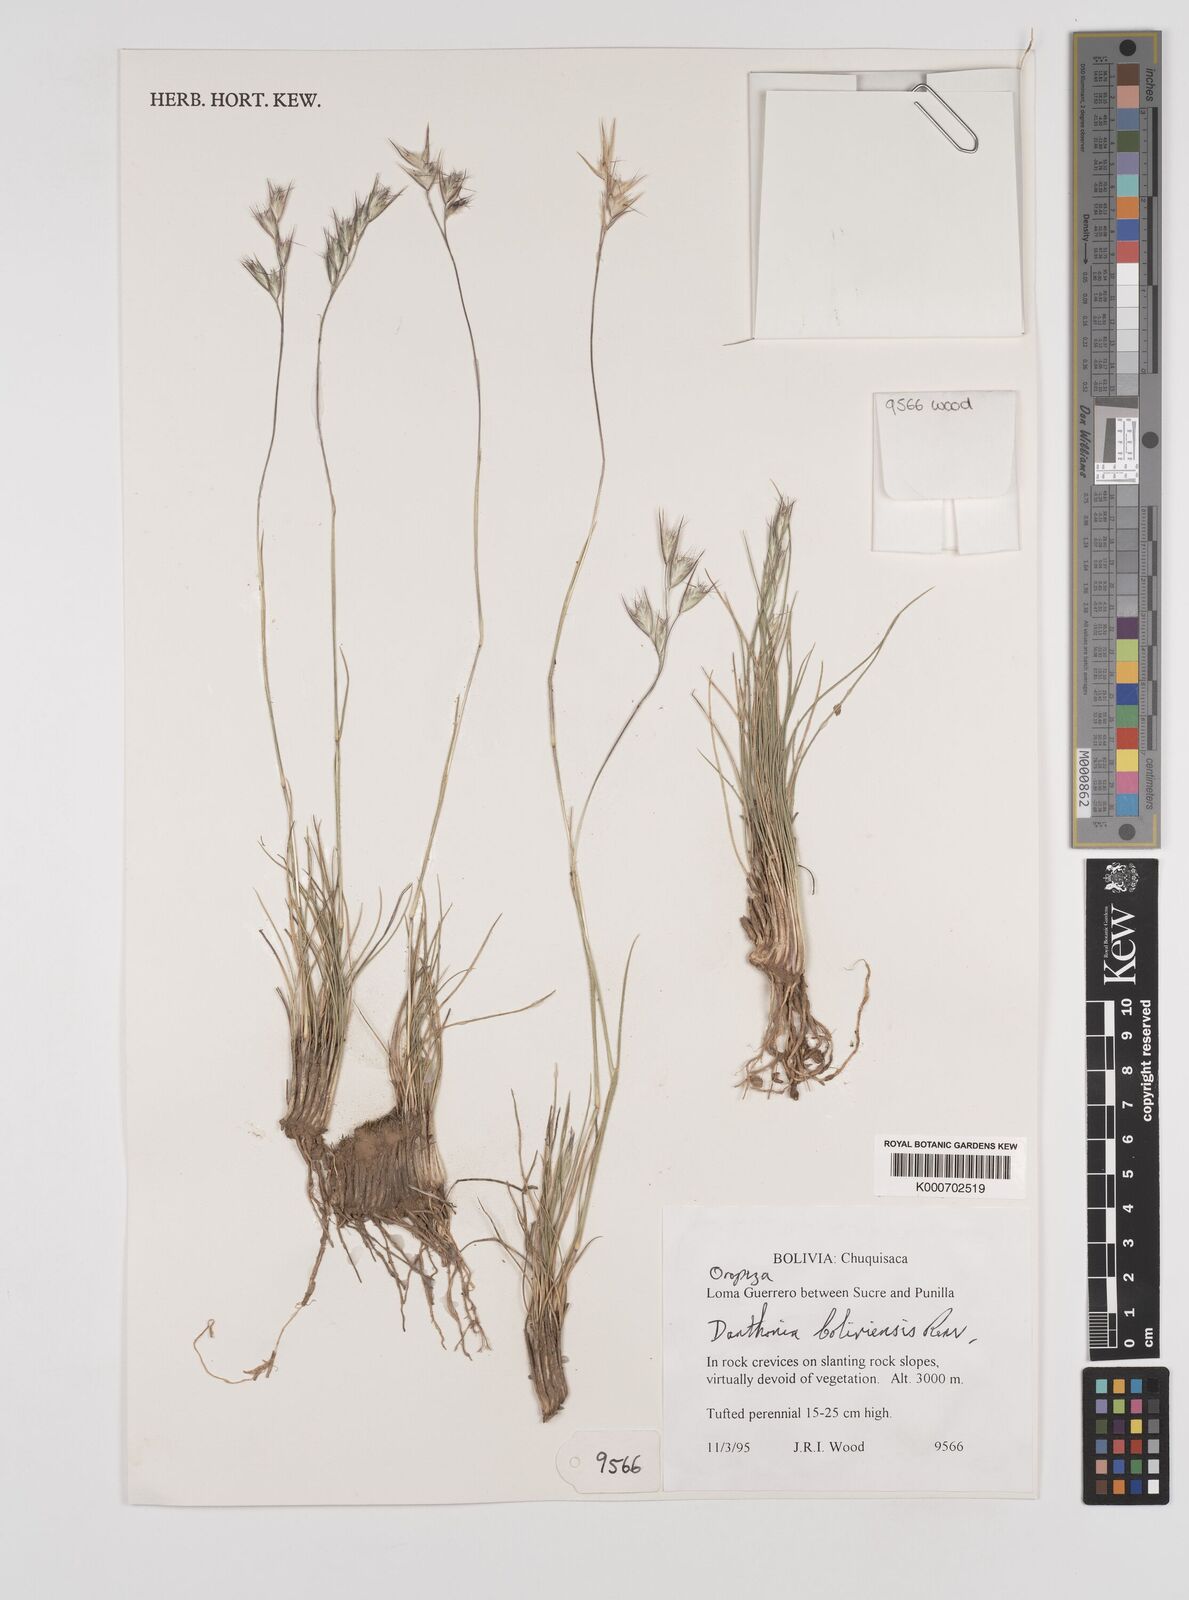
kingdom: Plantae
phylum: Tracheophyta
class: Liliopsida
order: Poales
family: Poaceae
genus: Danthonia
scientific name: Danthonia boliviensis
